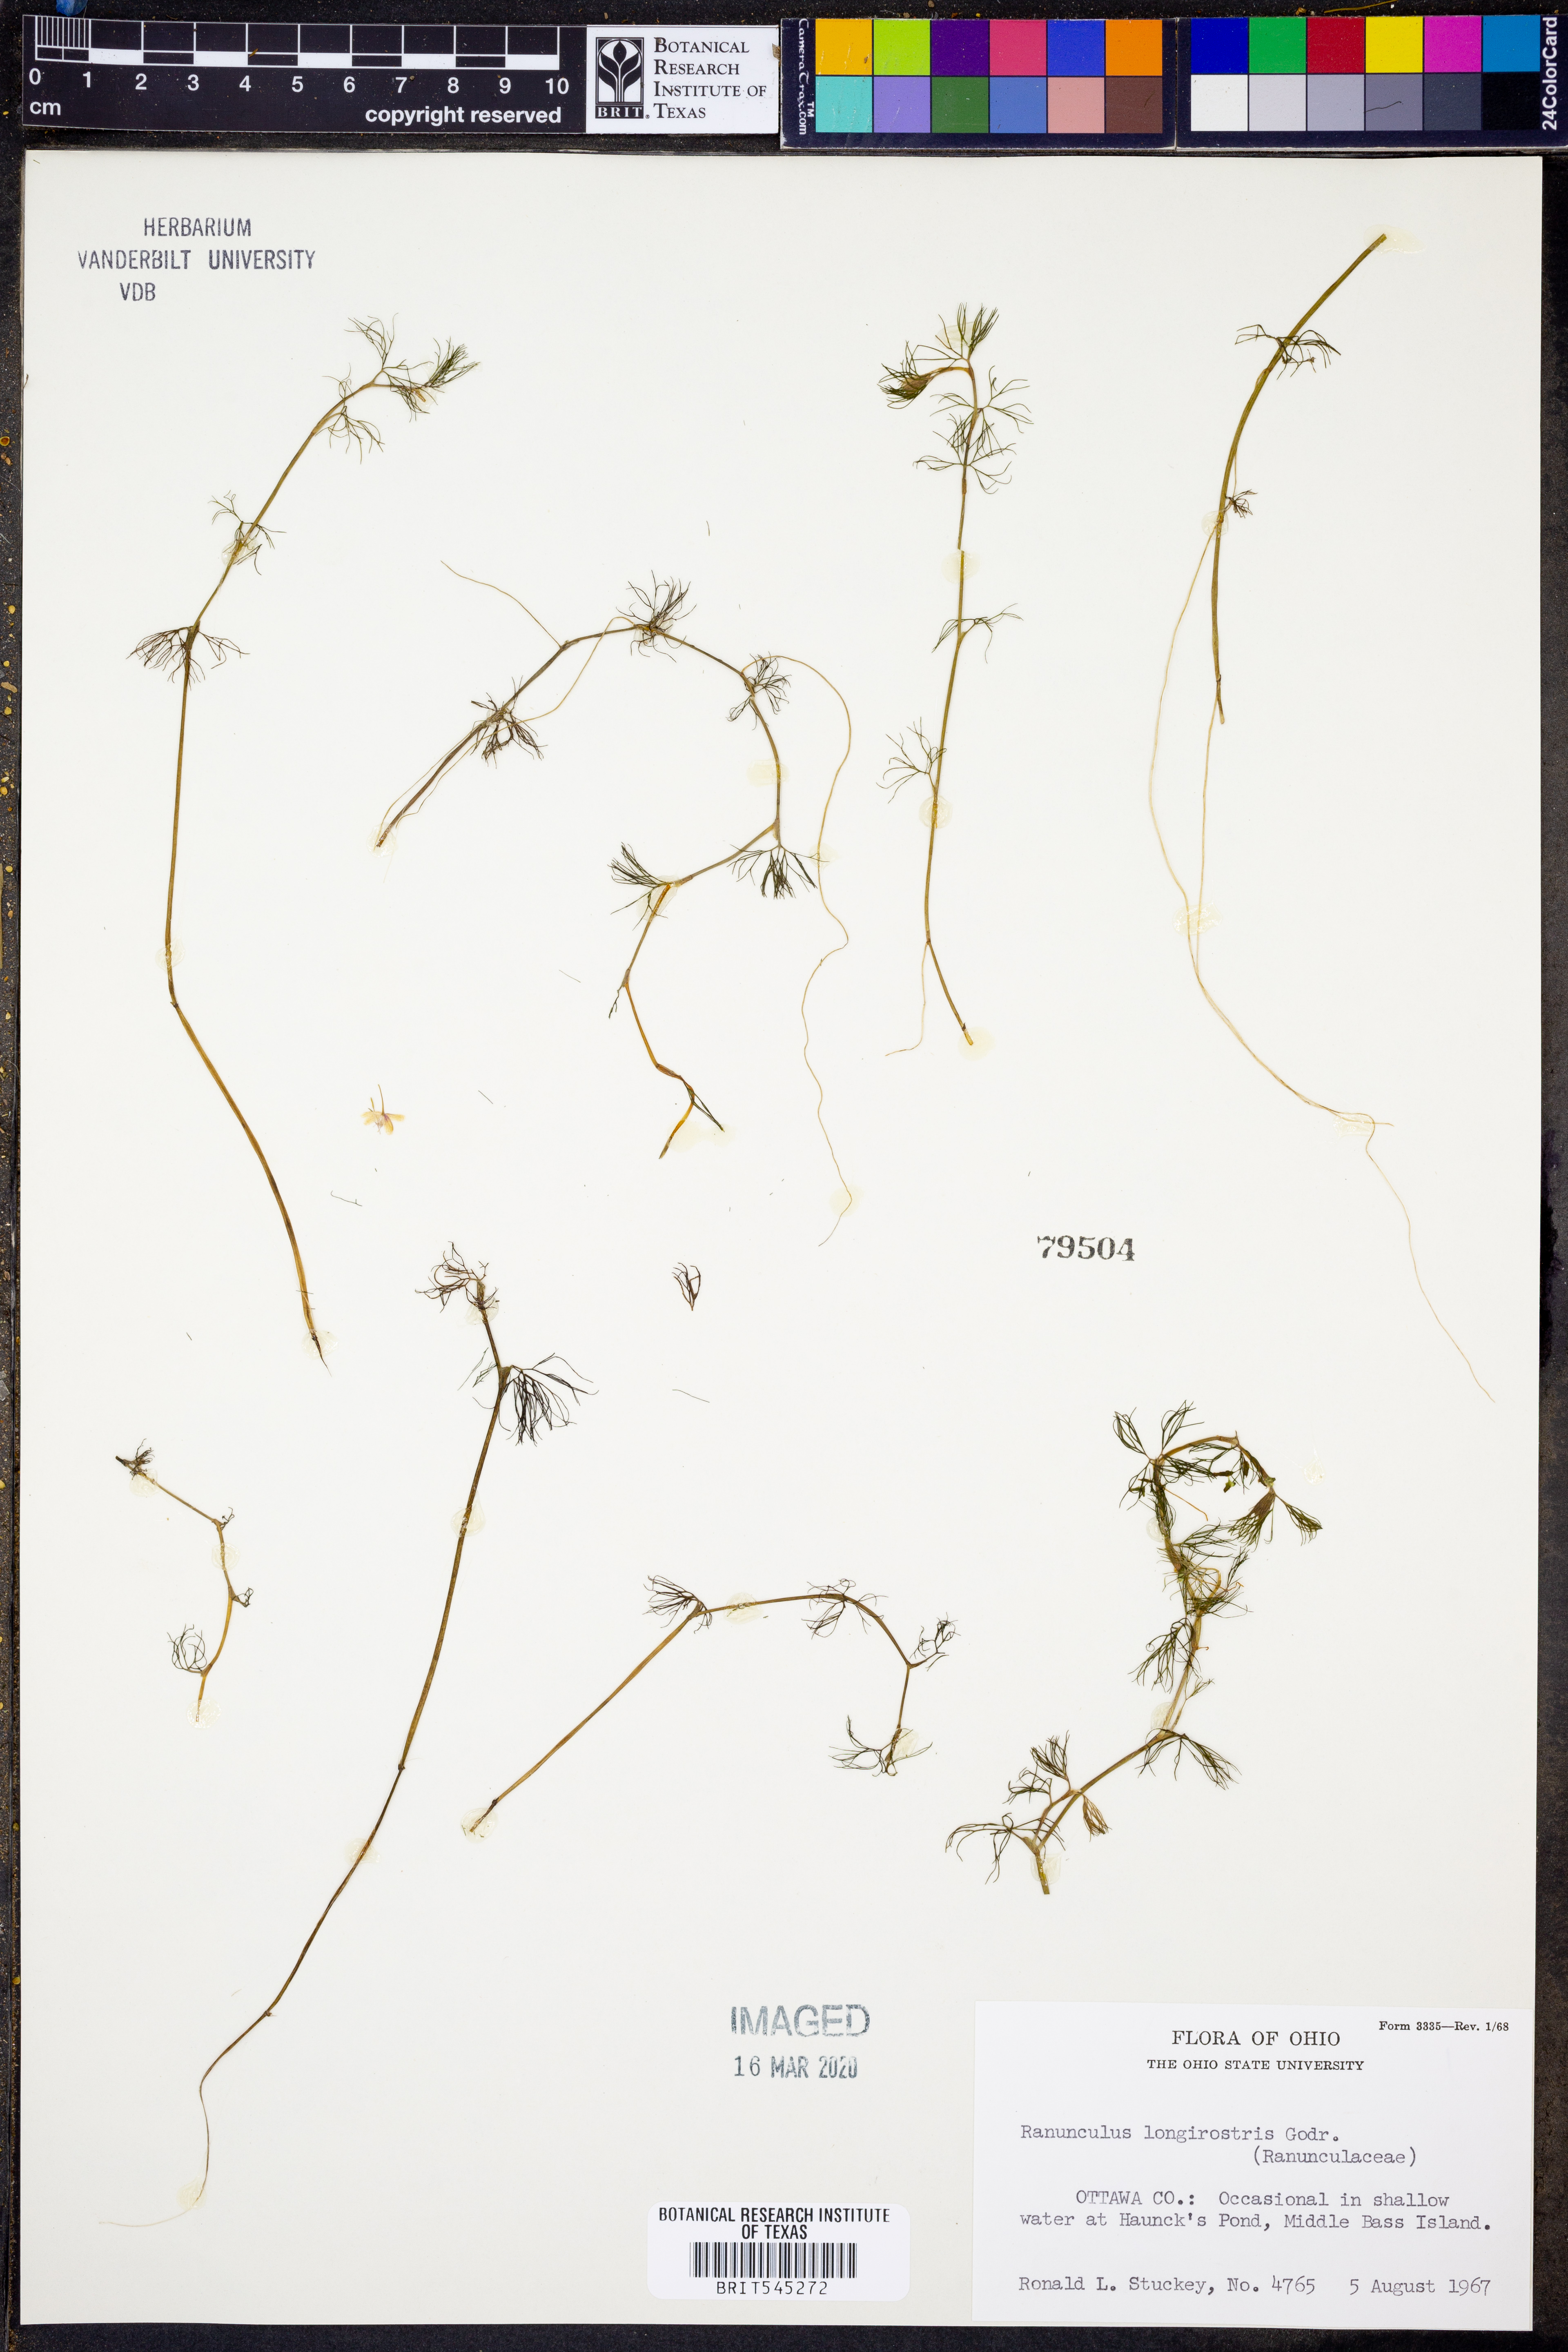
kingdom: Plantae
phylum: Tracheophyta
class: Magnoliopsida
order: Ranunculales
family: Ranunculaceae
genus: Ranunculus
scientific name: Ranunculus longirostris
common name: Curly white water-crowfoot
